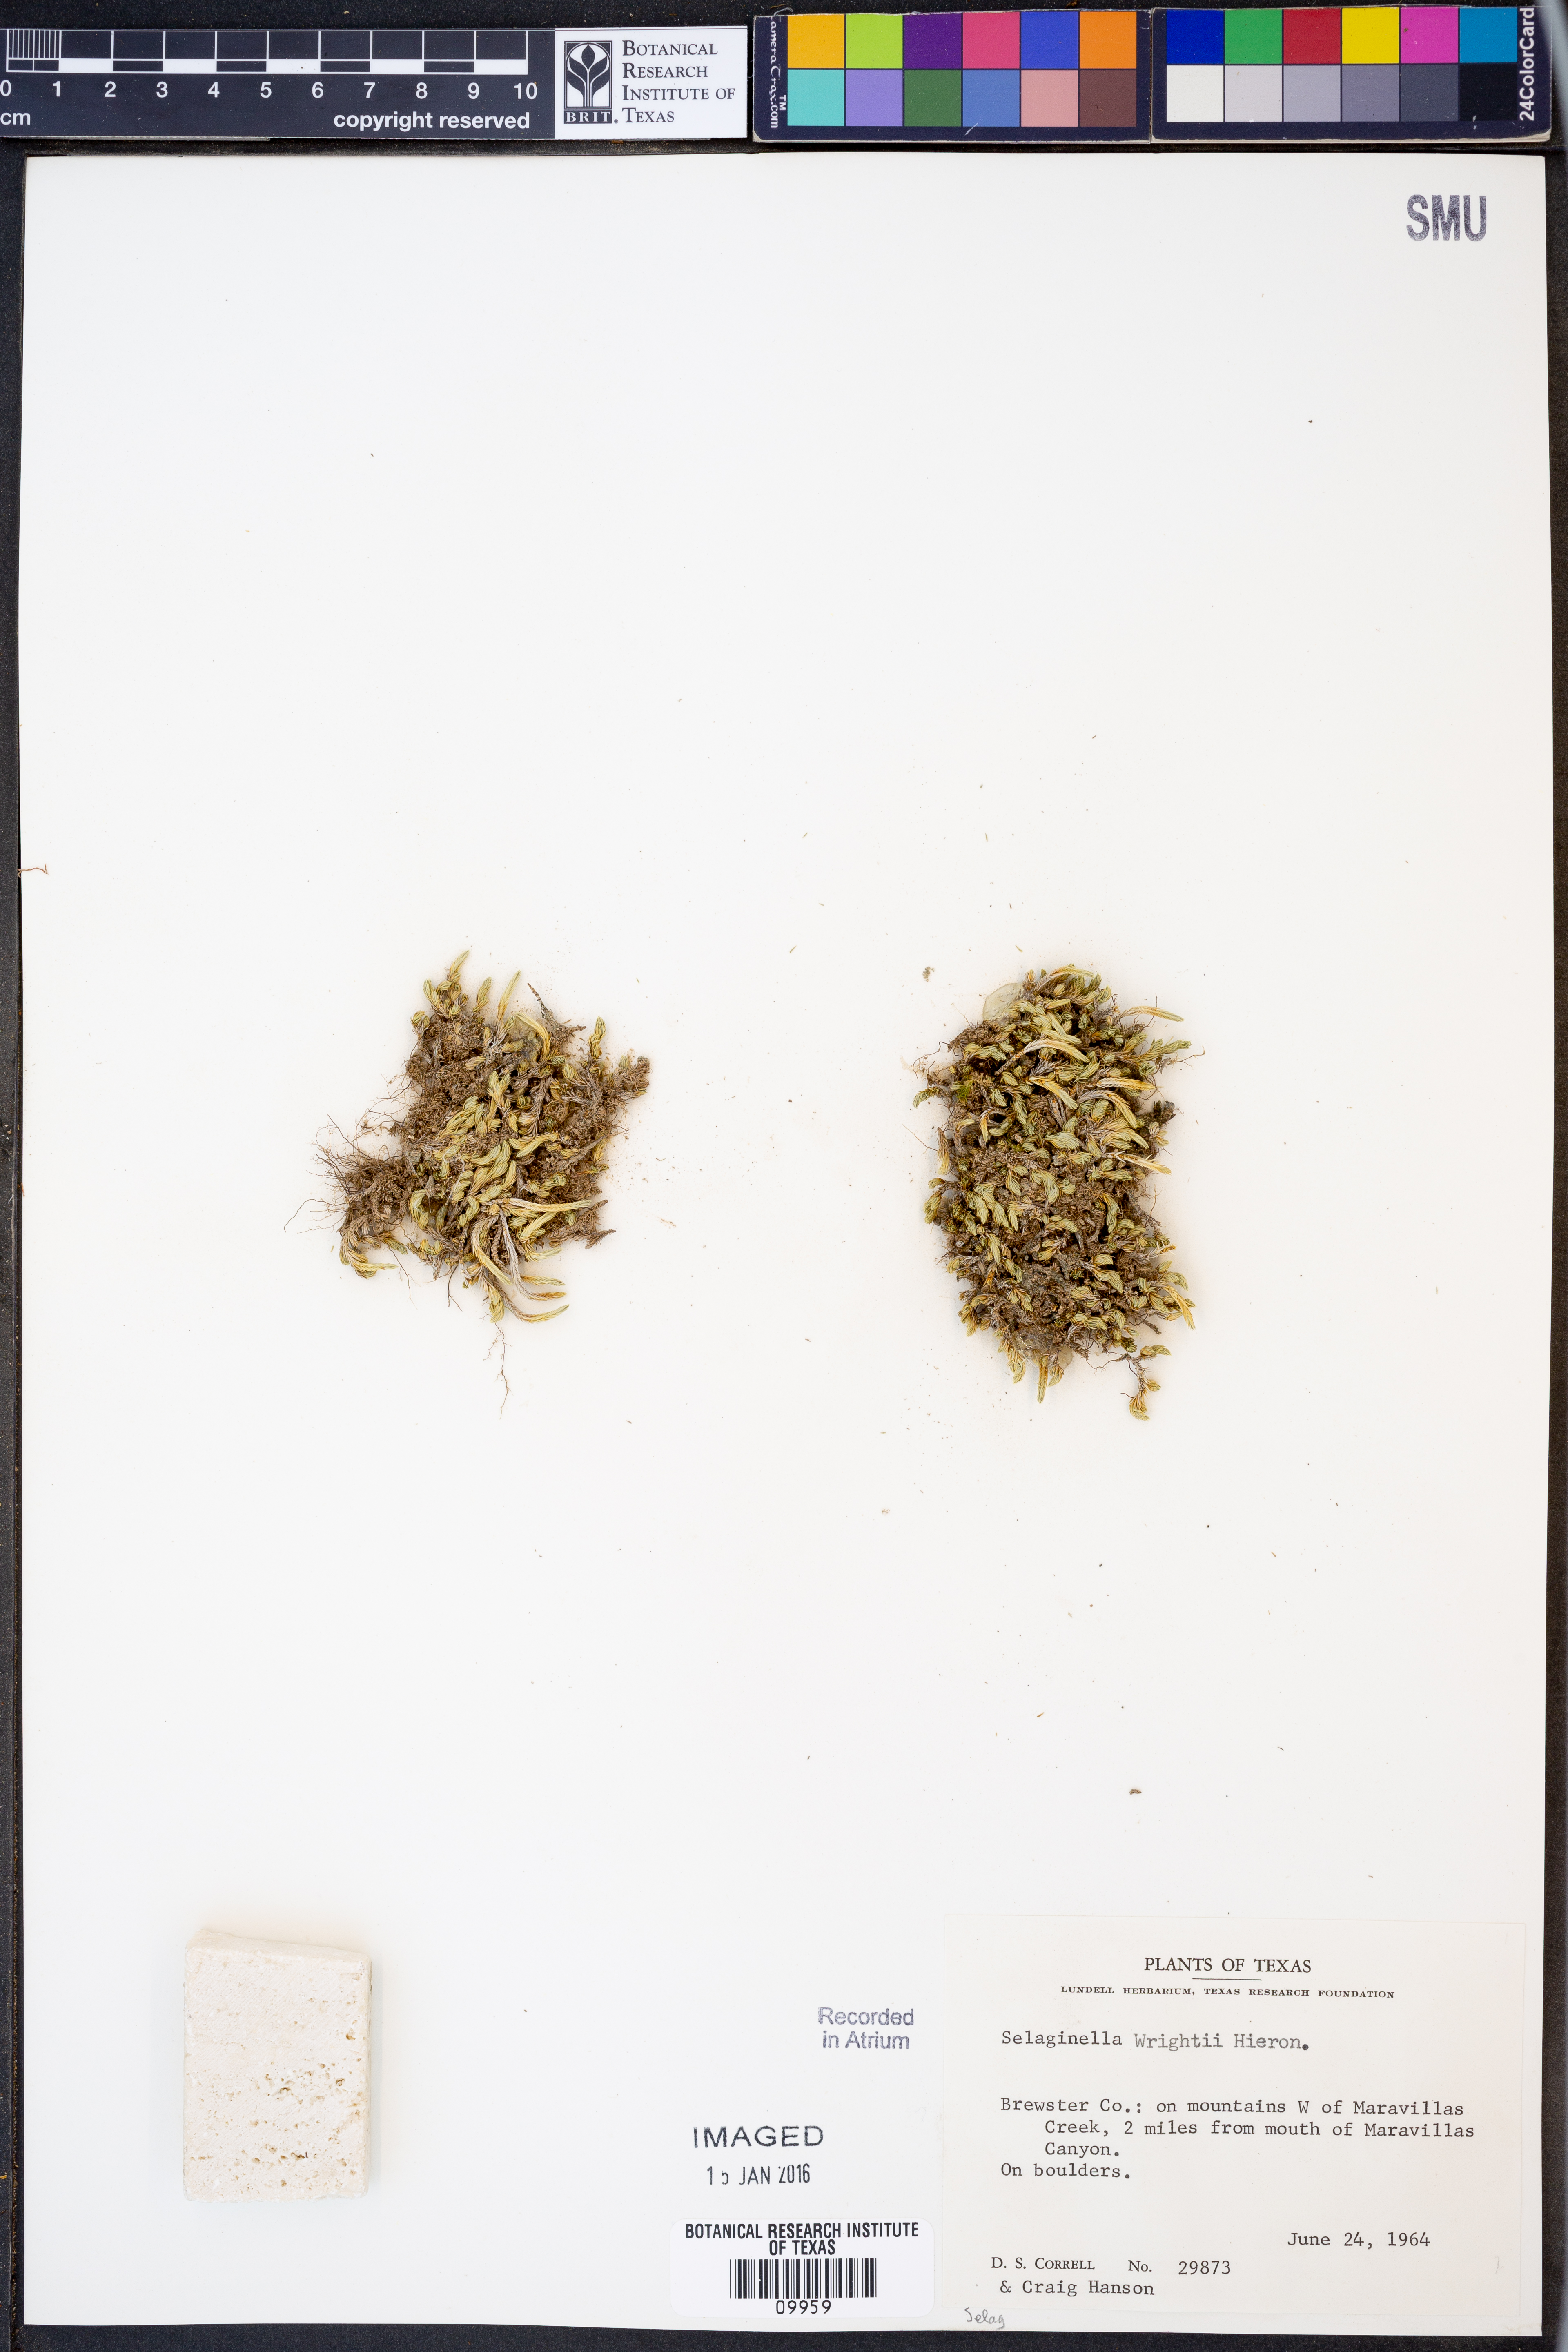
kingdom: Plantae
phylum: Tracheophyta
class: Lycopodiopsida
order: Selaginellales
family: Selaginellaceae
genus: Selaginella
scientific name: Selaginella wrightii
